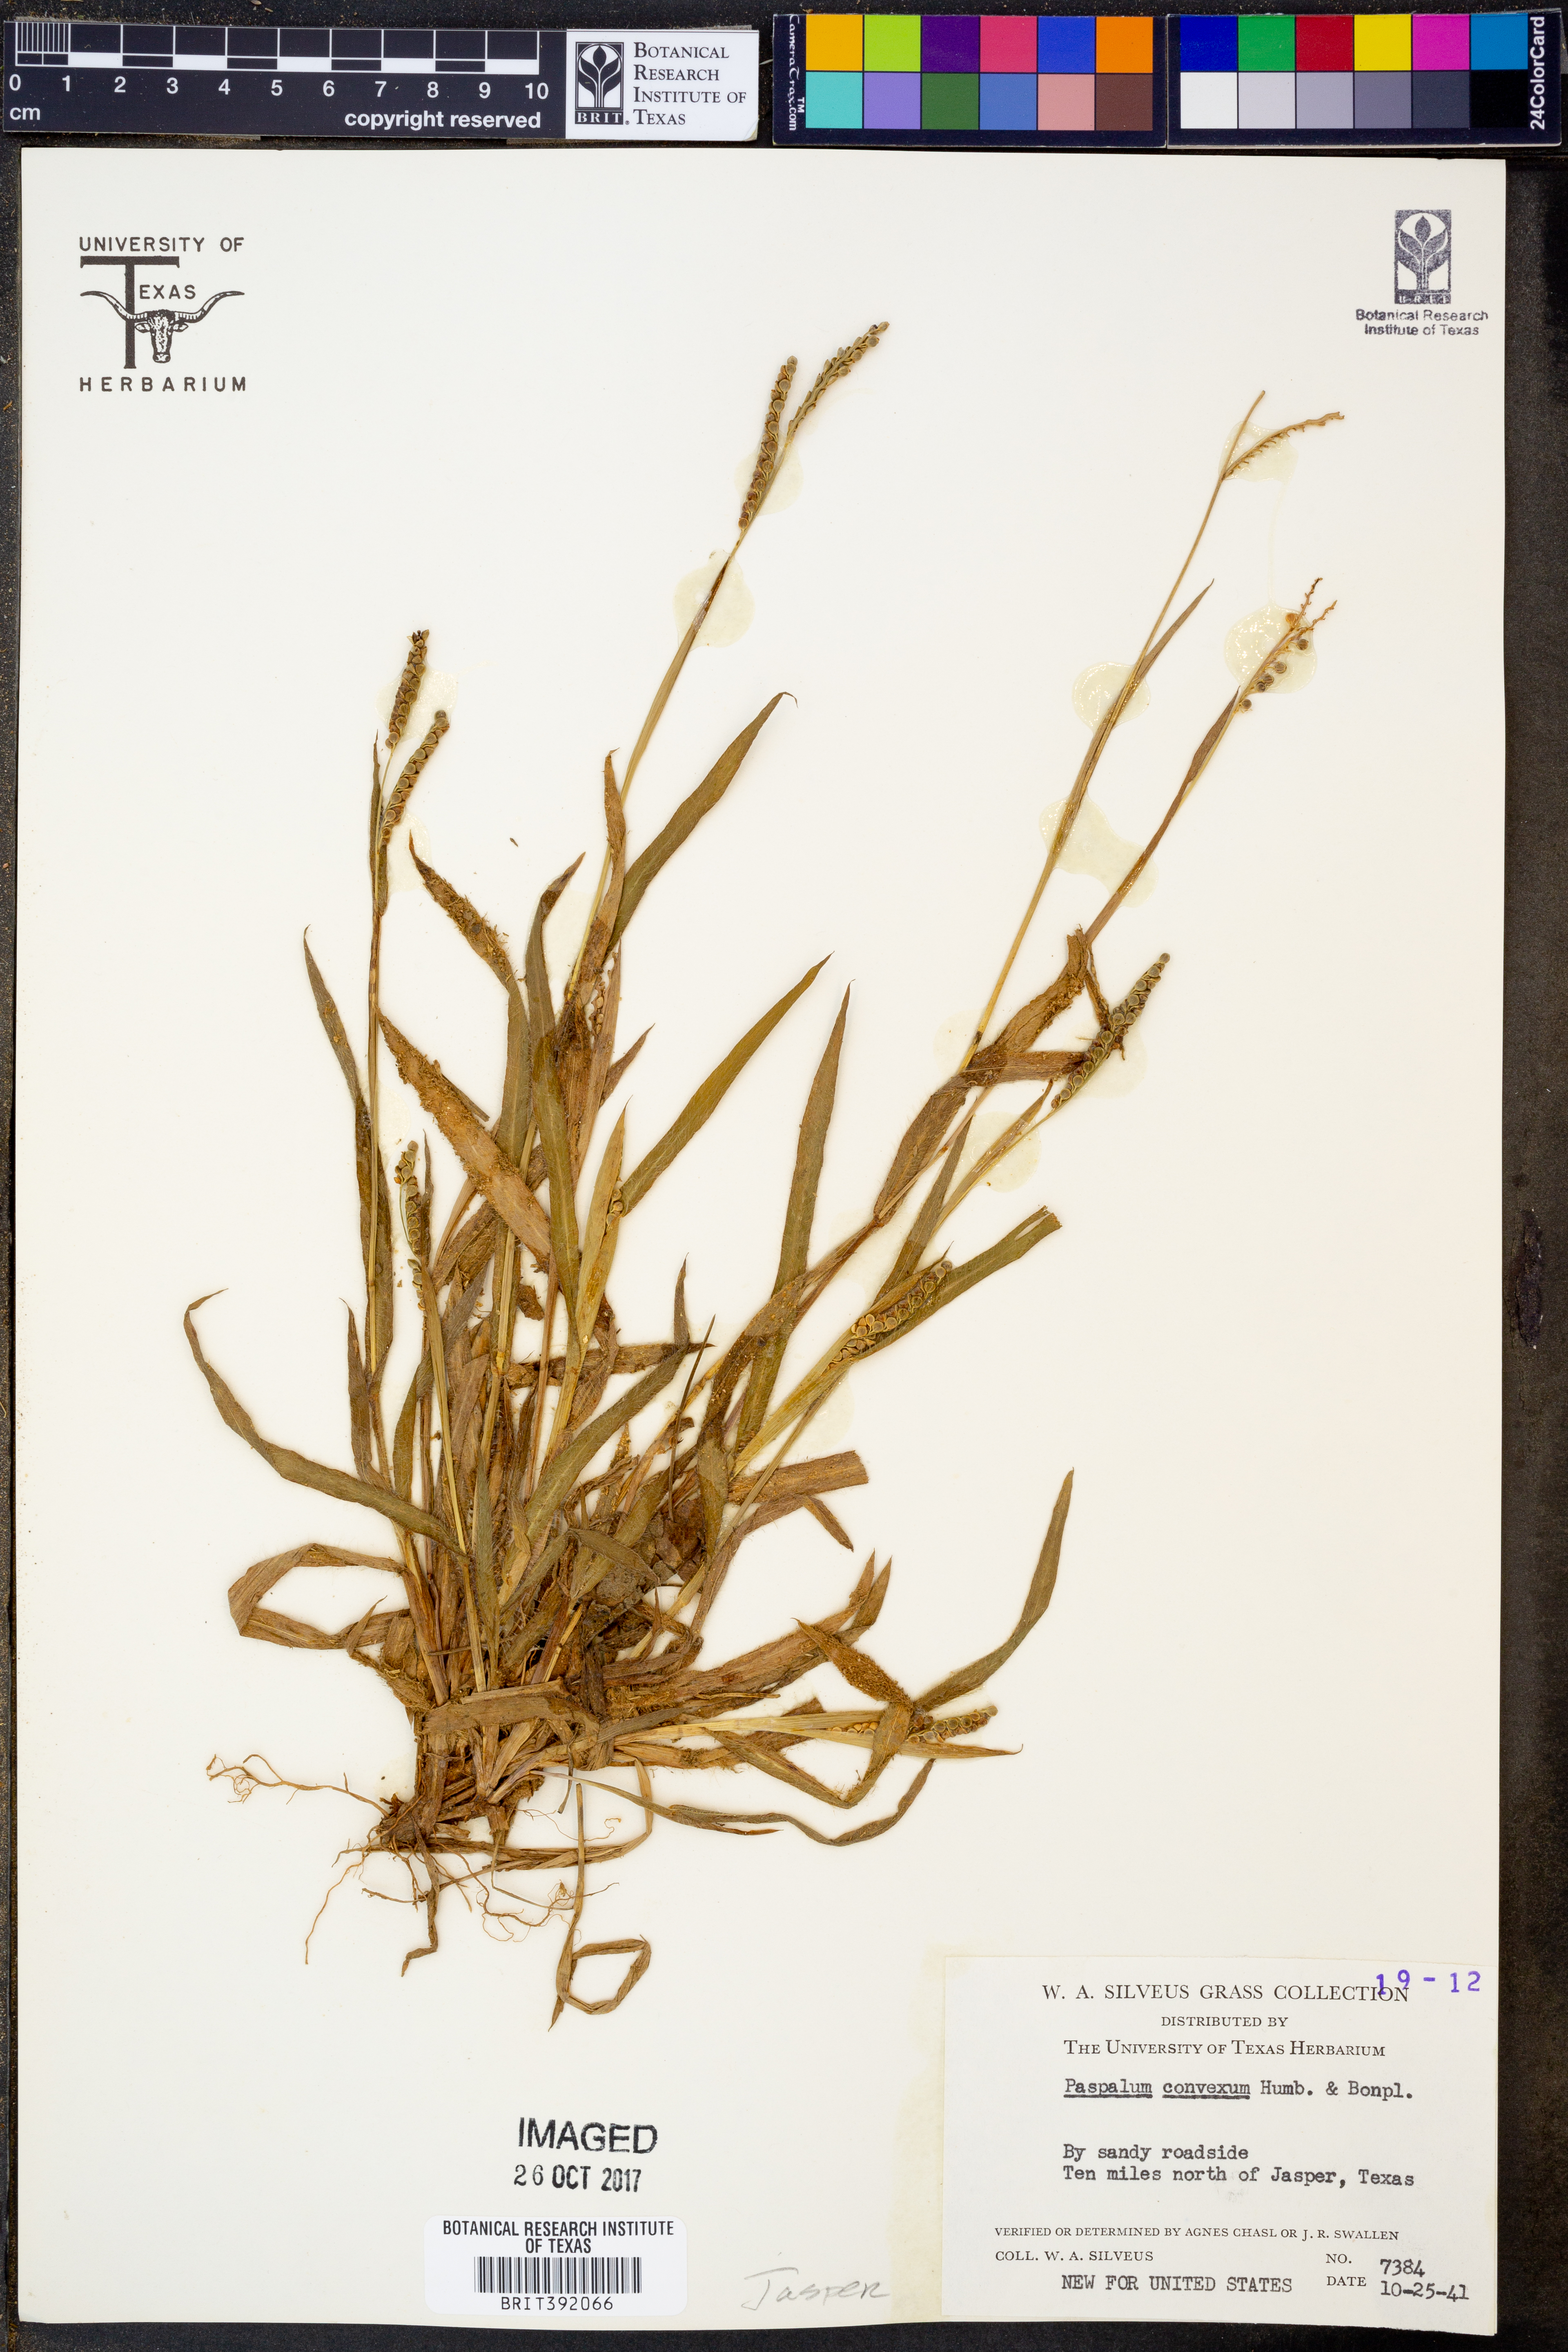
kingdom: Plantae
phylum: Tracheophyta
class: Liliopsida
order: Poales
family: Poaceae
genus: Paspalum
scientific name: Paspalum convexum
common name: Latin american crowngrass
